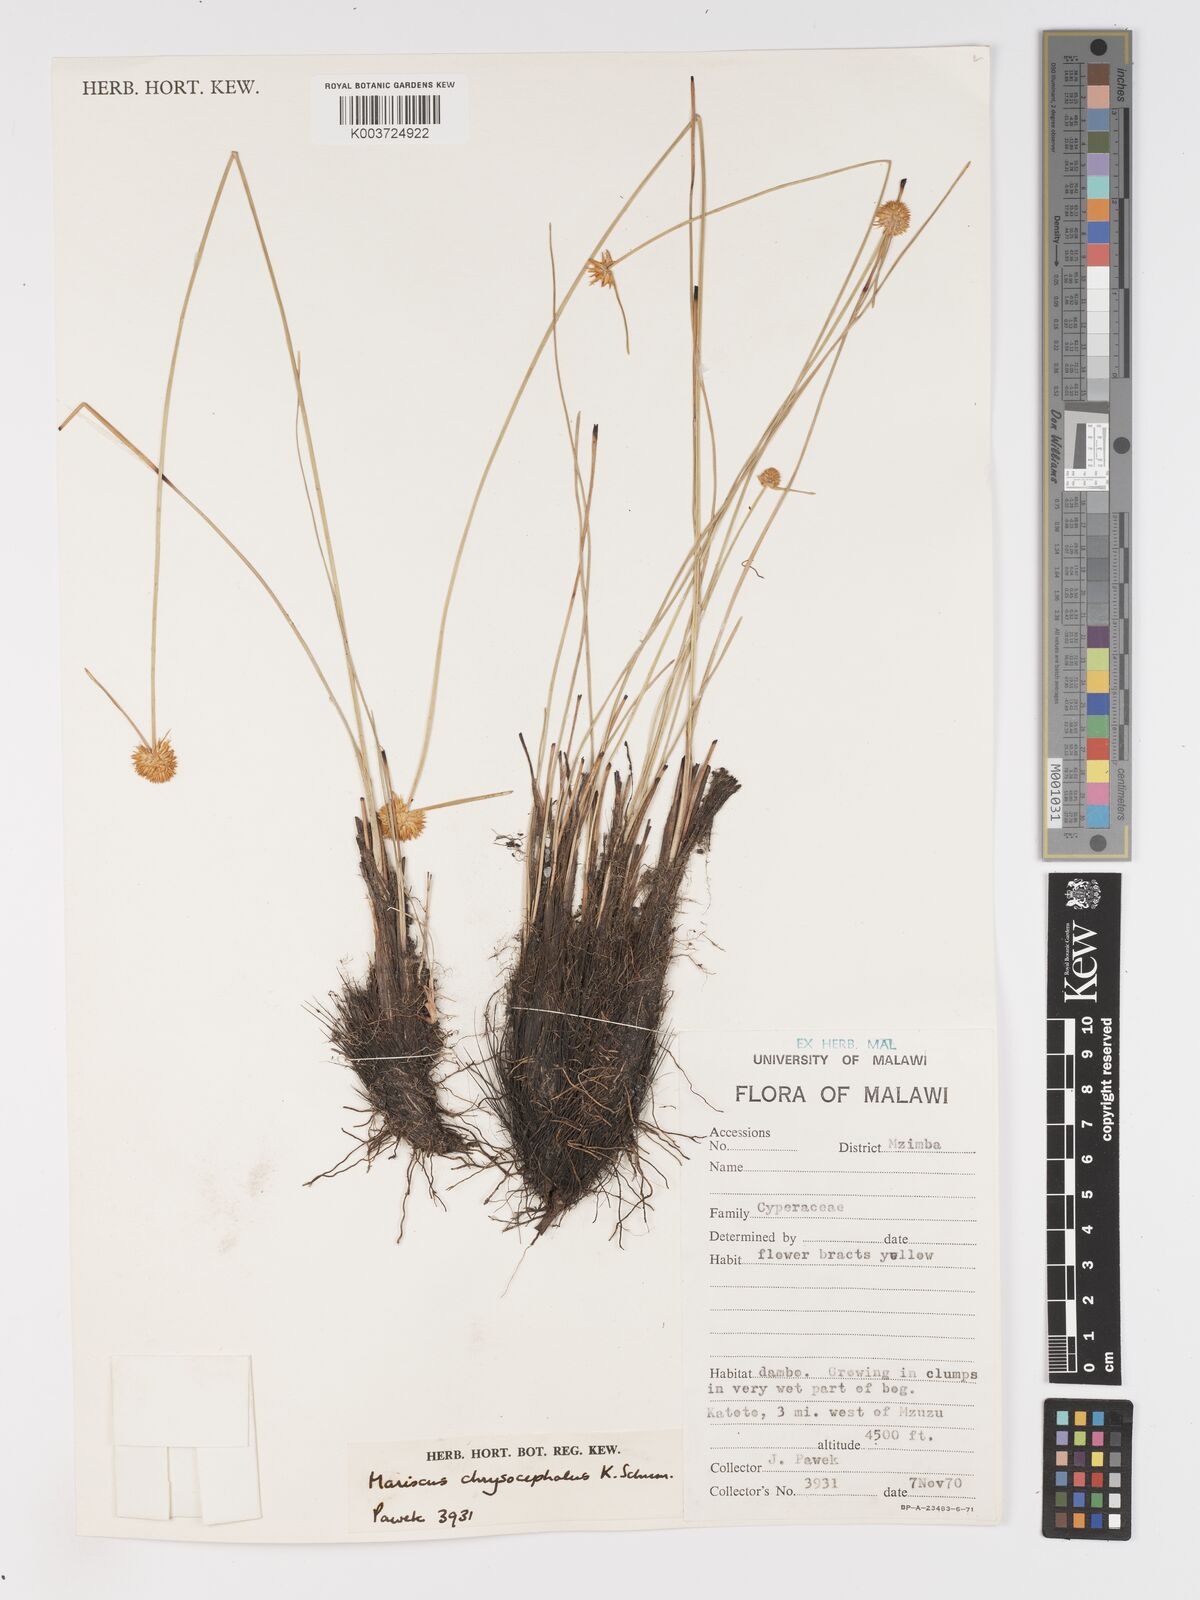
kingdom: Plantae
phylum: Tracheophyta
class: Liliopsida
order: Poales
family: Cyperaceae
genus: Cyperus
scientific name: Cyperus chrysocephalus
